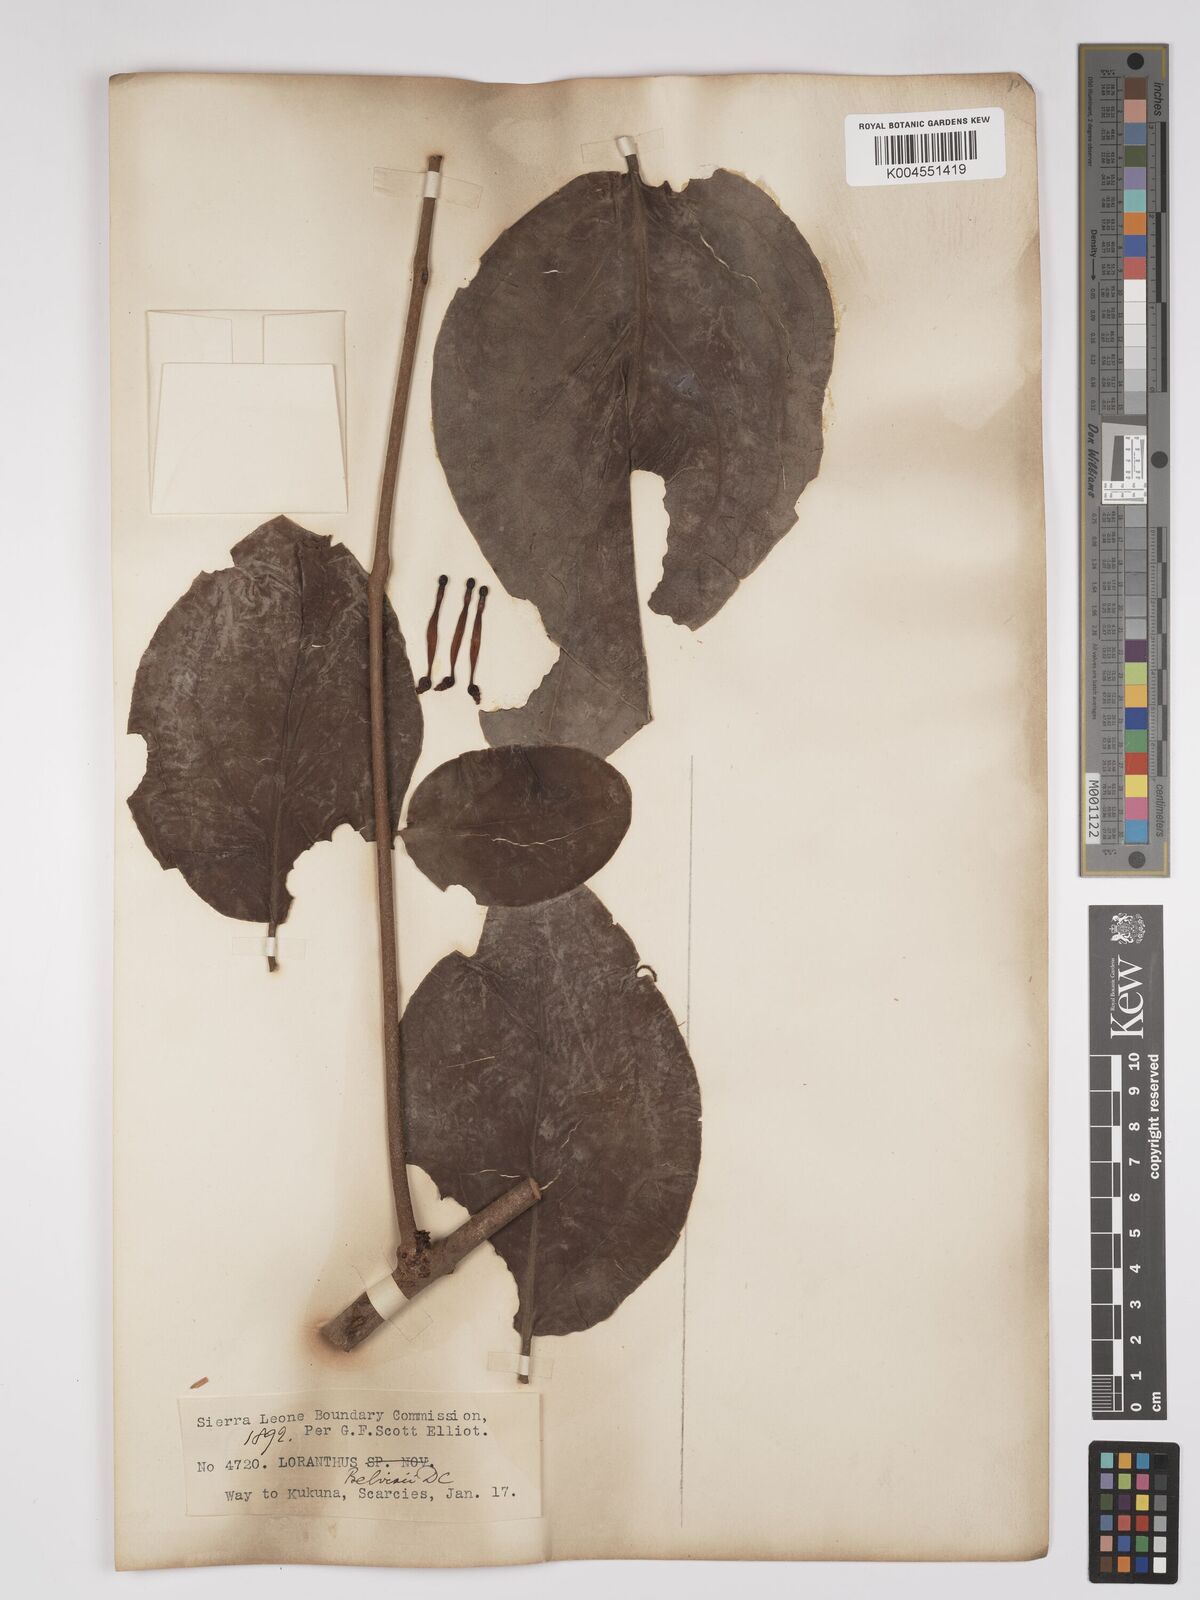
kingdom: Plantae
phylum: Tracheophyta
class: Magnoliopsida
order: Santalales
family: Loranthaceae
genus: Tapinanthus
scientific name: Tapinanthus bangwensis
